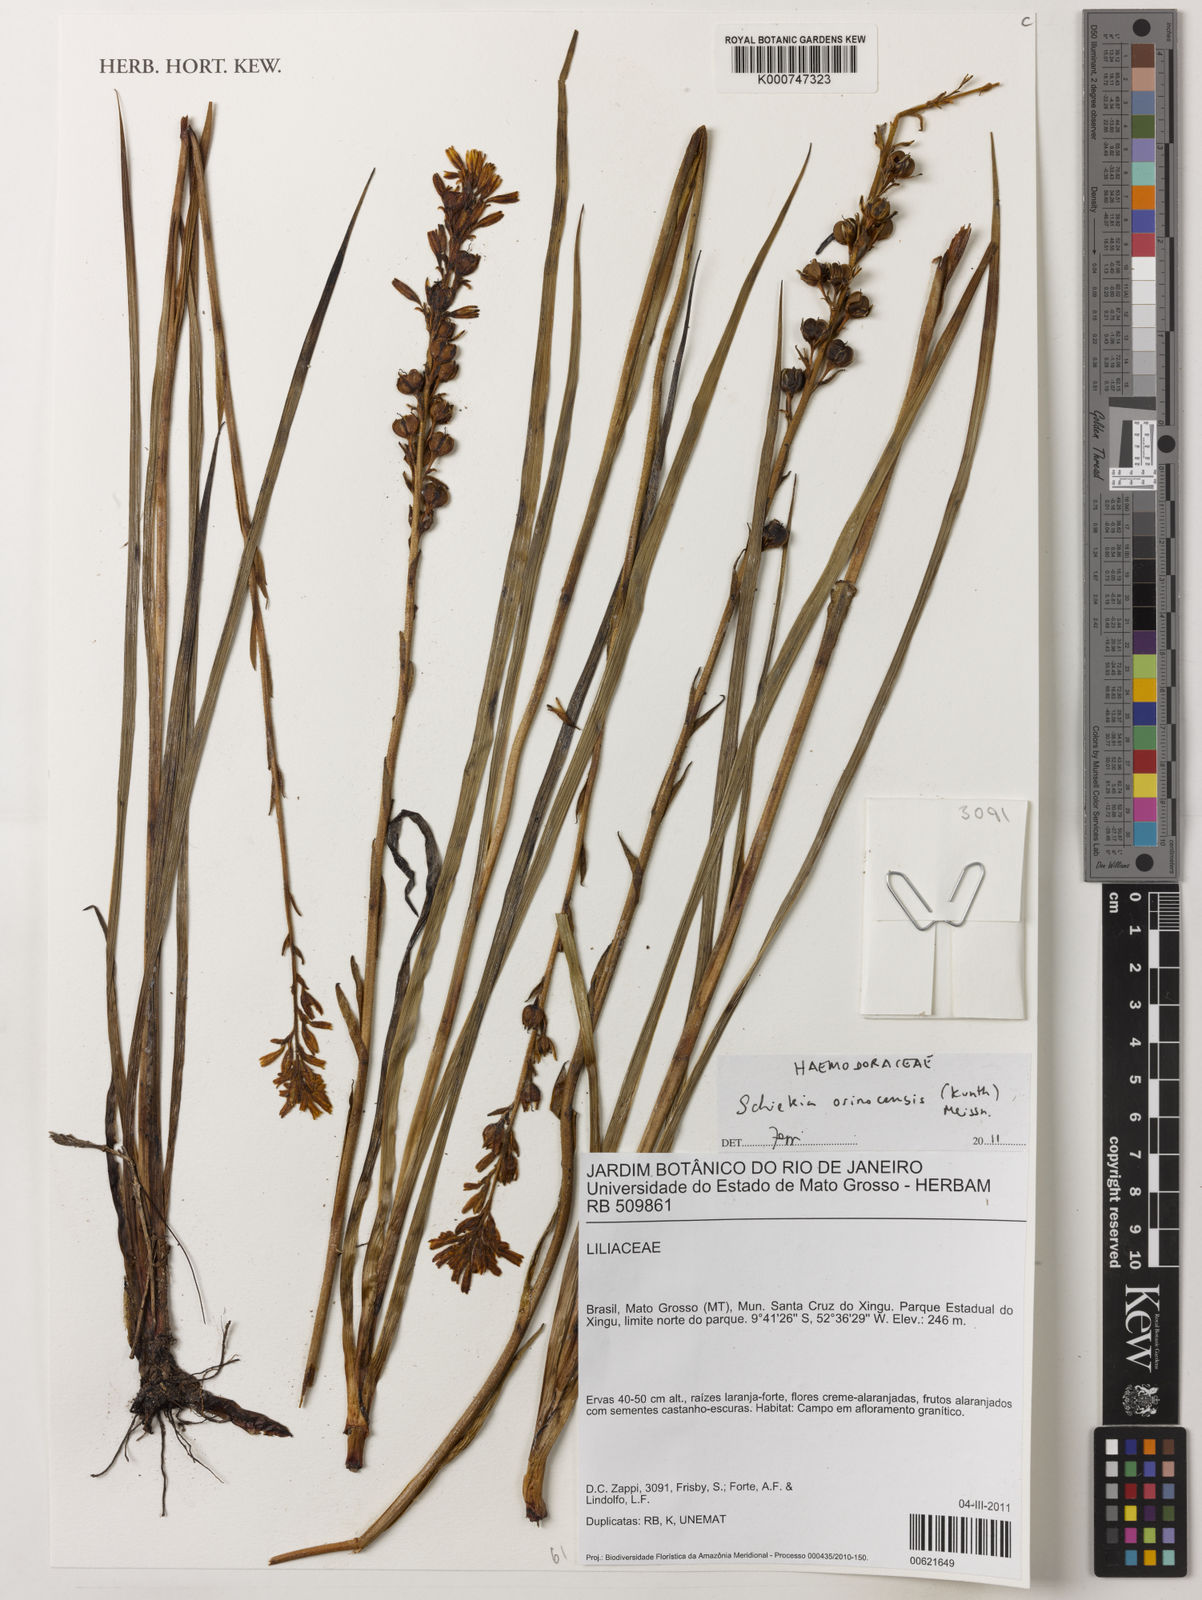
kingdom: Plantae
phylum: Tracheophyta
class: Liliopsida
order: Commelinales
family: Haemodoraceae
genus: Schiekia
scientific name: Schiekia orinocensis
